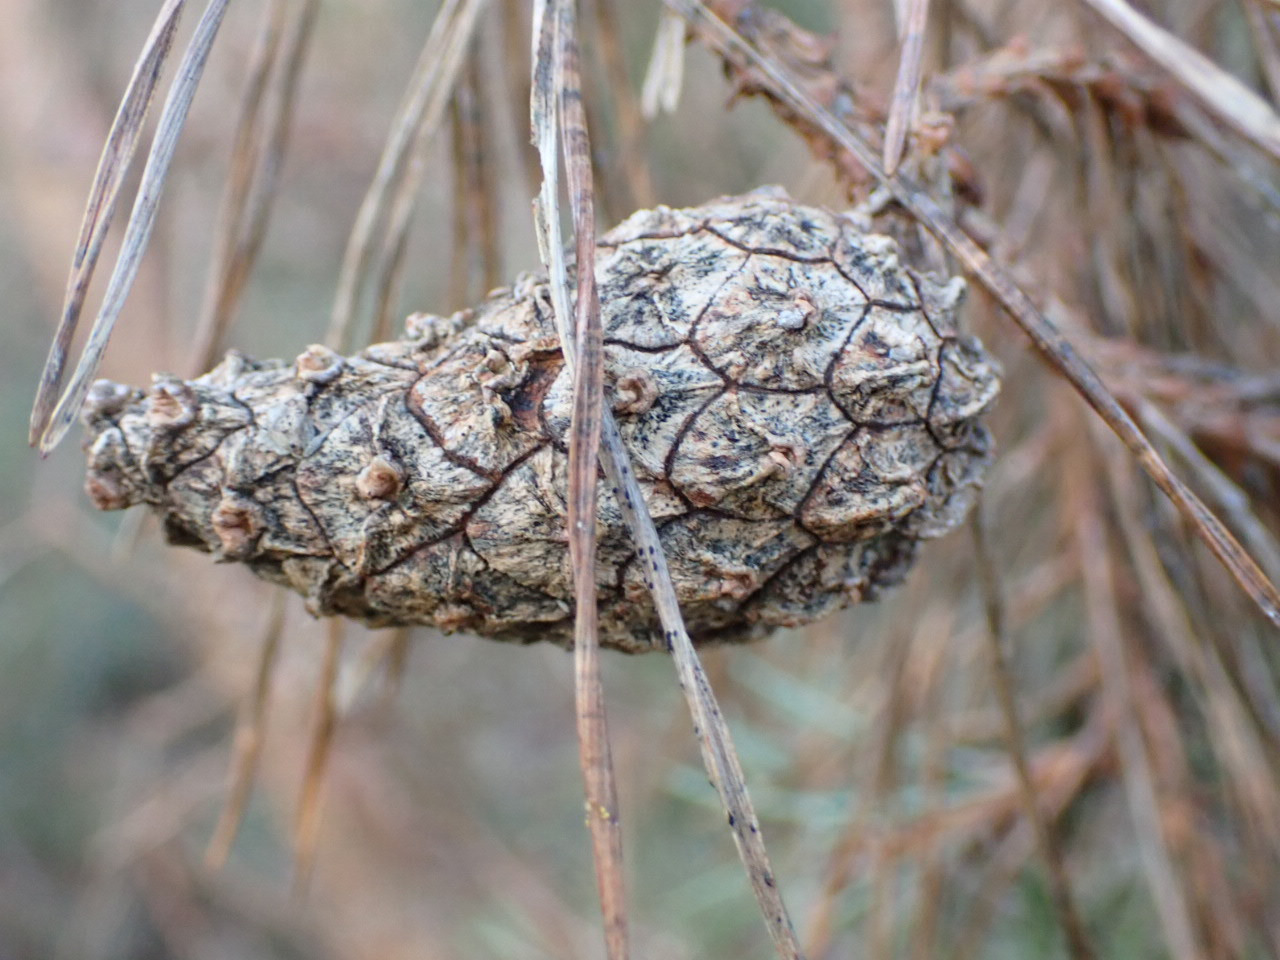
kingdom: Plantae
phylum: Tracheophyta
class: Pinopsida
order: Pinales
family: Pinaceae
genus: Pinus
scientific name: Pinus sylvestris
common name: Skov-fyr
